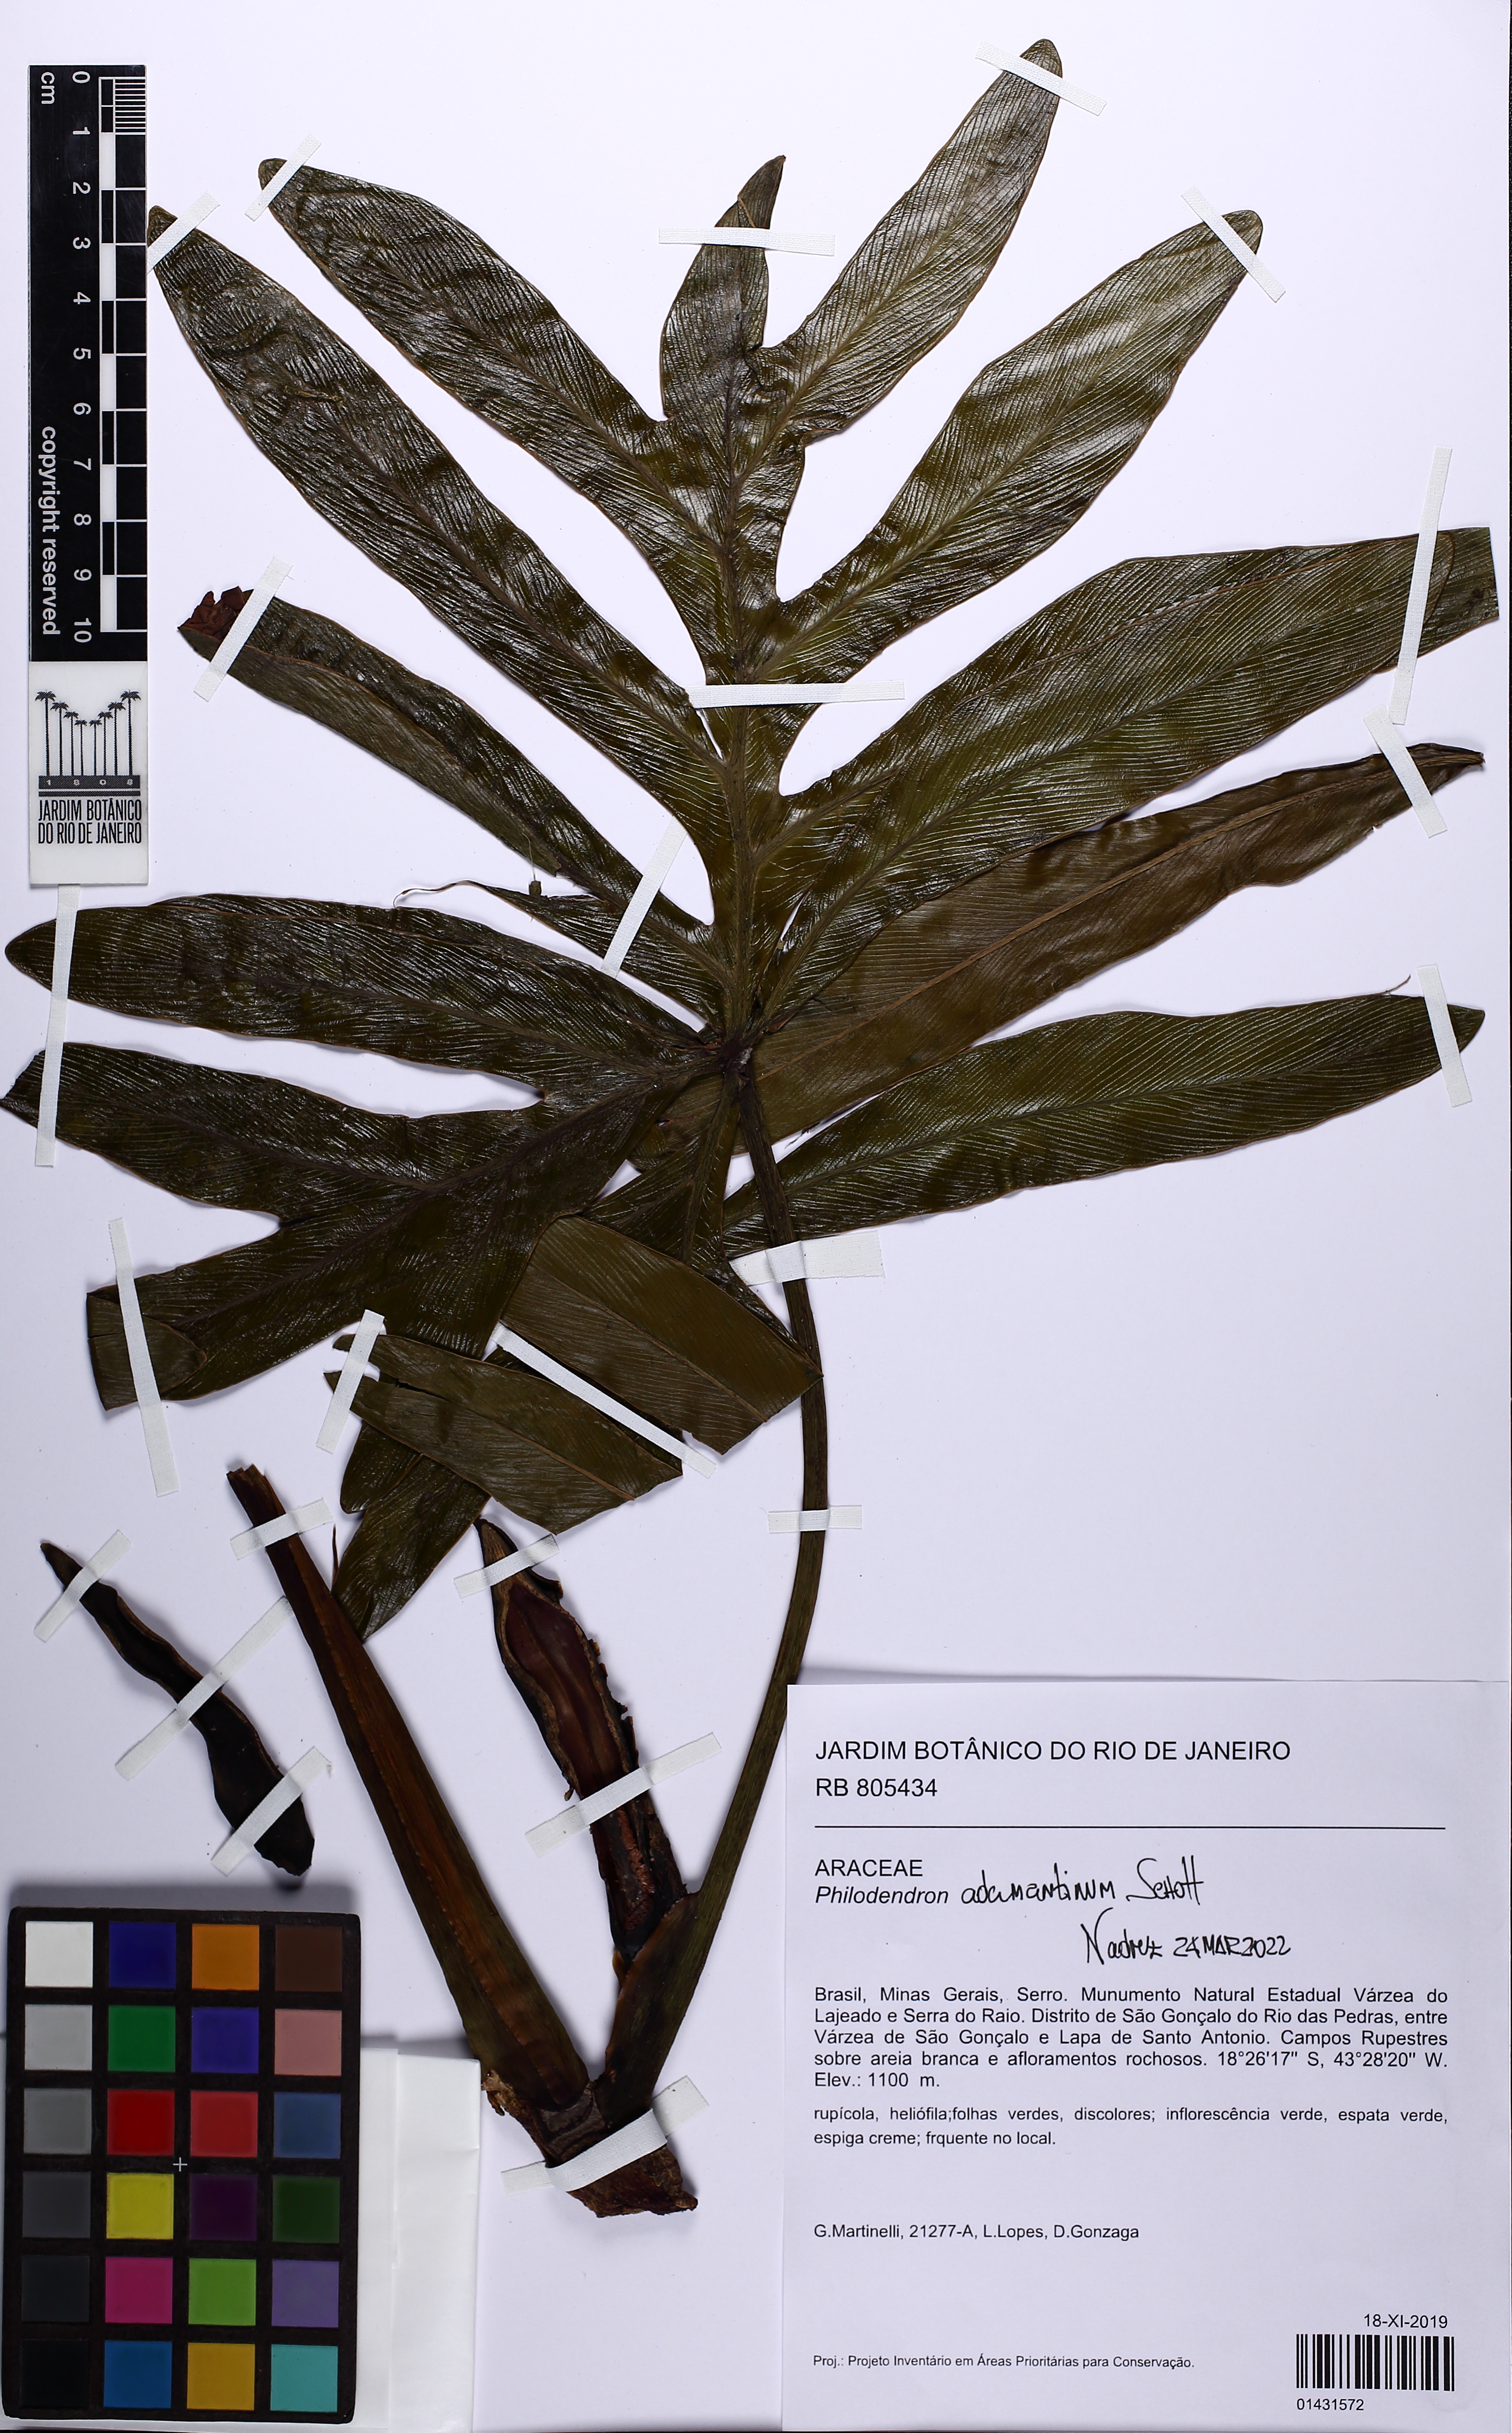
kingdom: Plantae
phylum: Tracheophyta
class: Liliopsida
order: Alismatales
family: Araceae
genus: Thaumatophyllum
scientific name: Thaumatophyllum adamantinum
